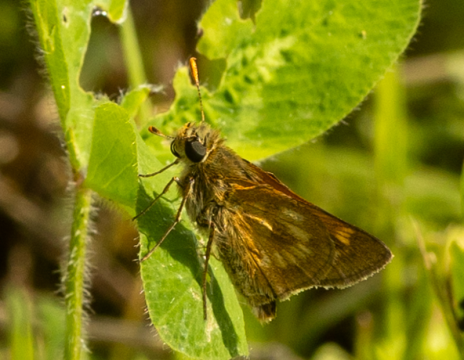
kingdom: Animalia
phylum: Arthropoda
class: Insecta
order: Lepidoptera
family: Hesperiidae
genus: Polites
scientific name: Polites
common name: Long Dash Skipper
